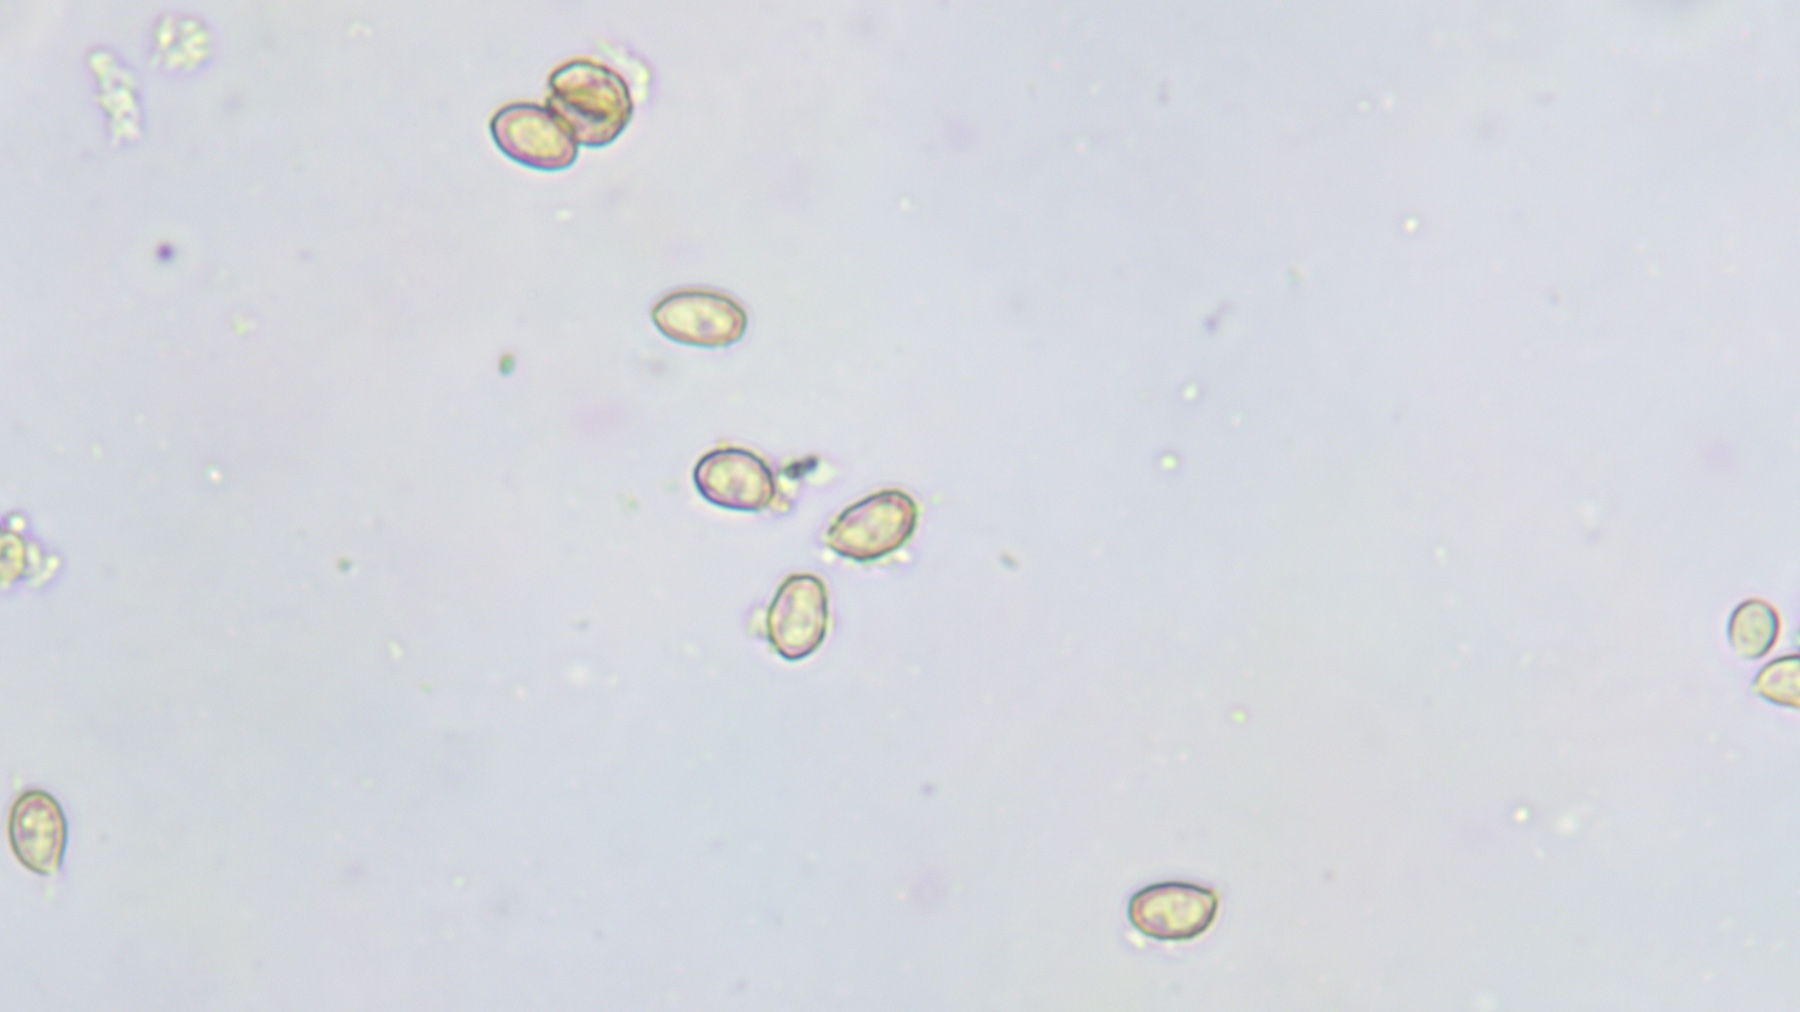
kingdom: Fungi
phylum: Basidiomycota
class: Agaricomycetes
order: Agaricales
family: Cortinariaceae
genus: Cortinarius
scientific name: Cortinarius
